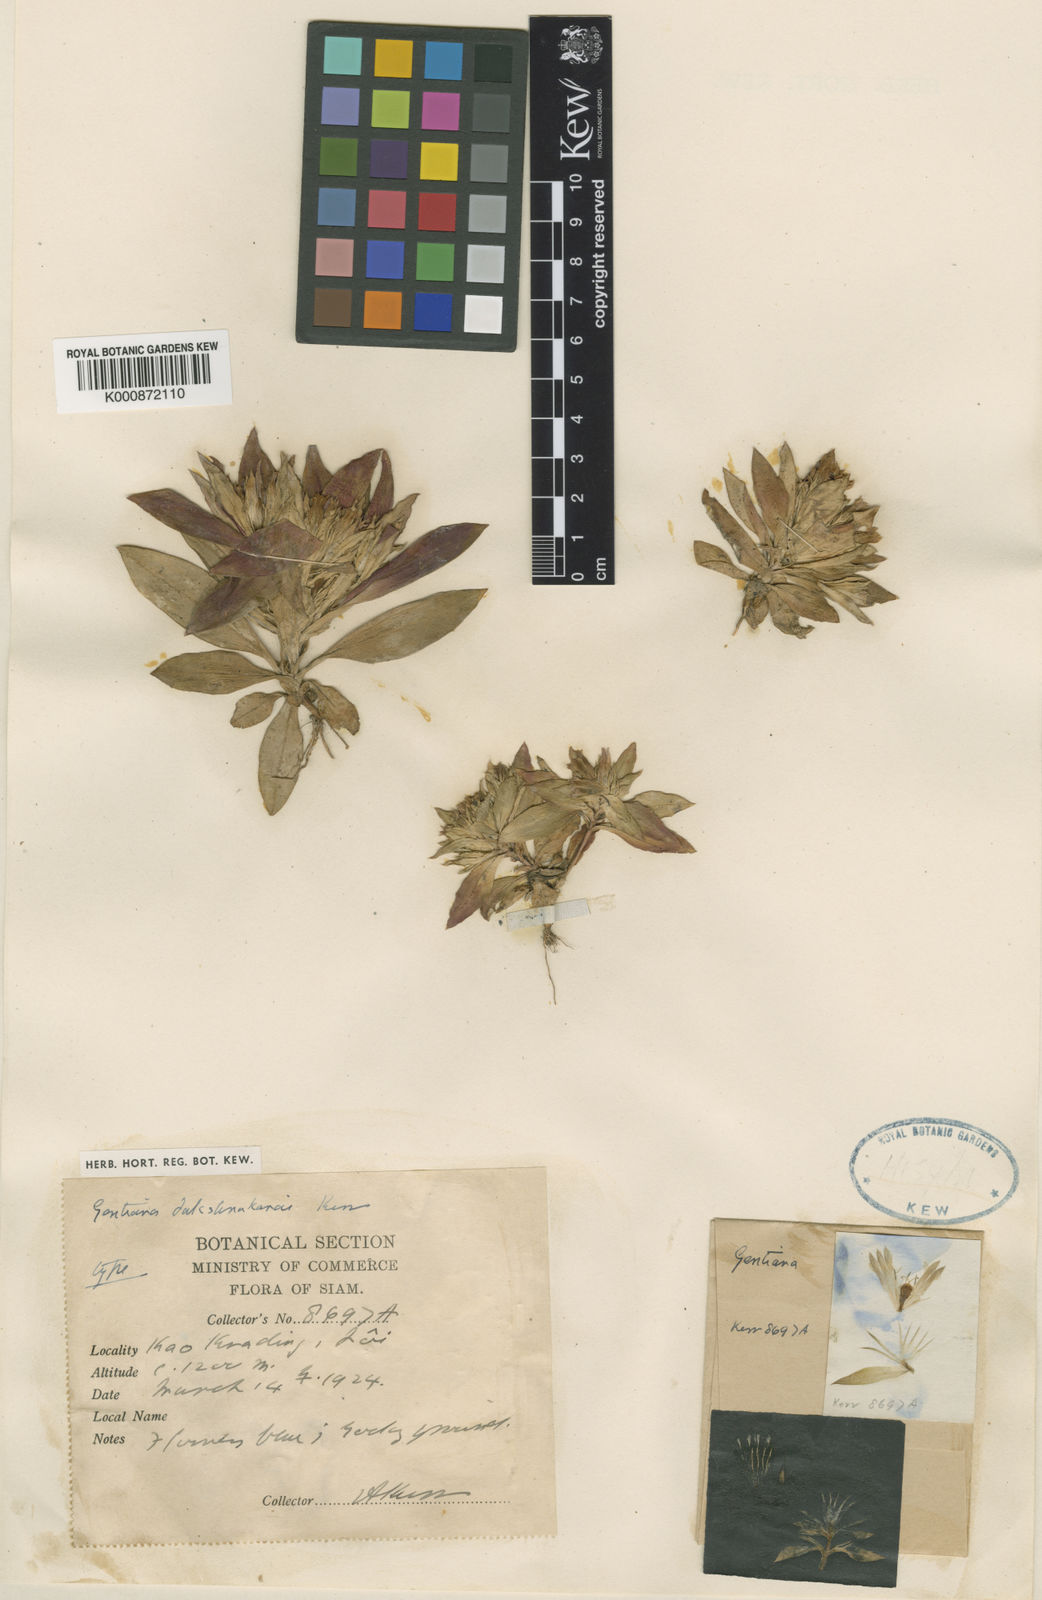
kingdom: Plantae
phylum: Tracheophyta
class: Magnoliopsida
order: Gentianales
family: Gentianaceae
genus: Gentiana
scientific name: Gentiana nudicaulis
